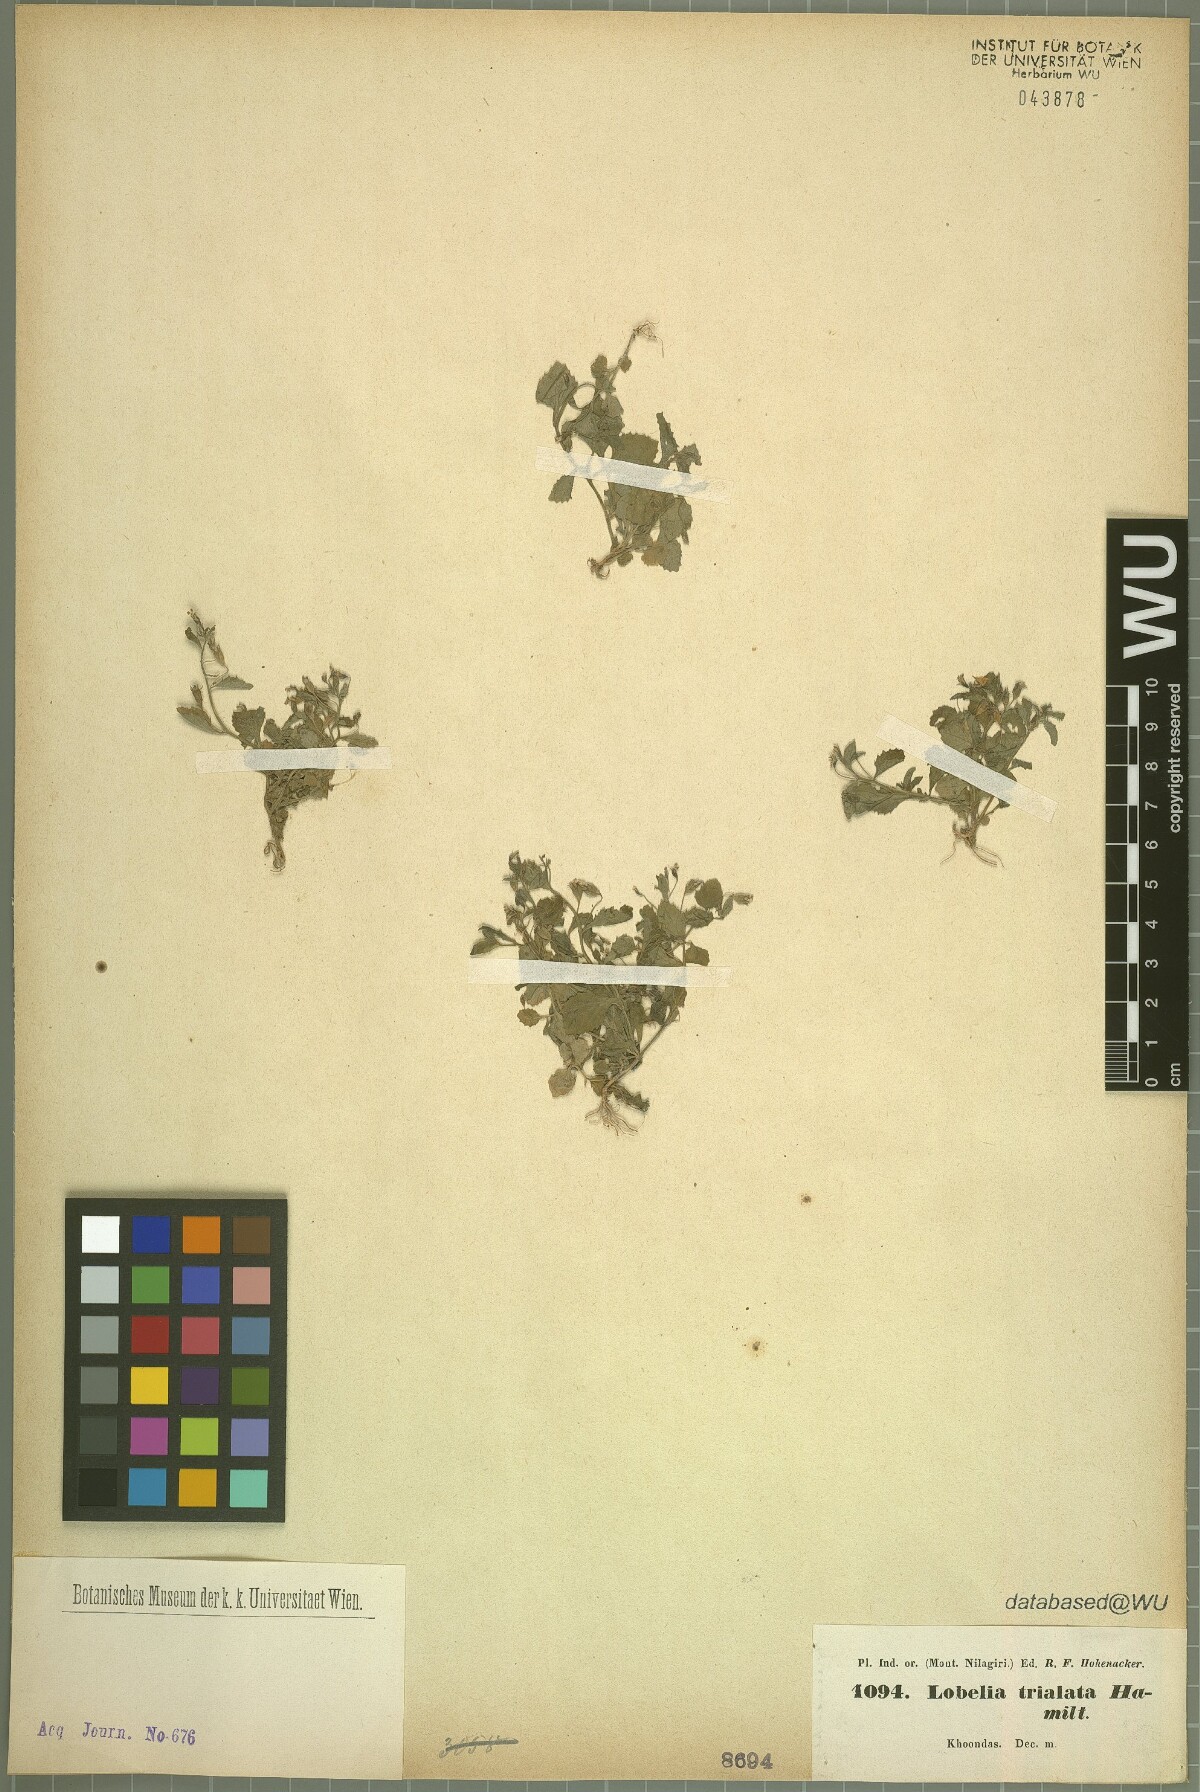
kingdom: Plantae
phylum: Tracheophyta
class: Magnoliopsida
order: Asterales
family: Campanulaceae
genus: Lobelia
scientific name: Lobelia trialata
